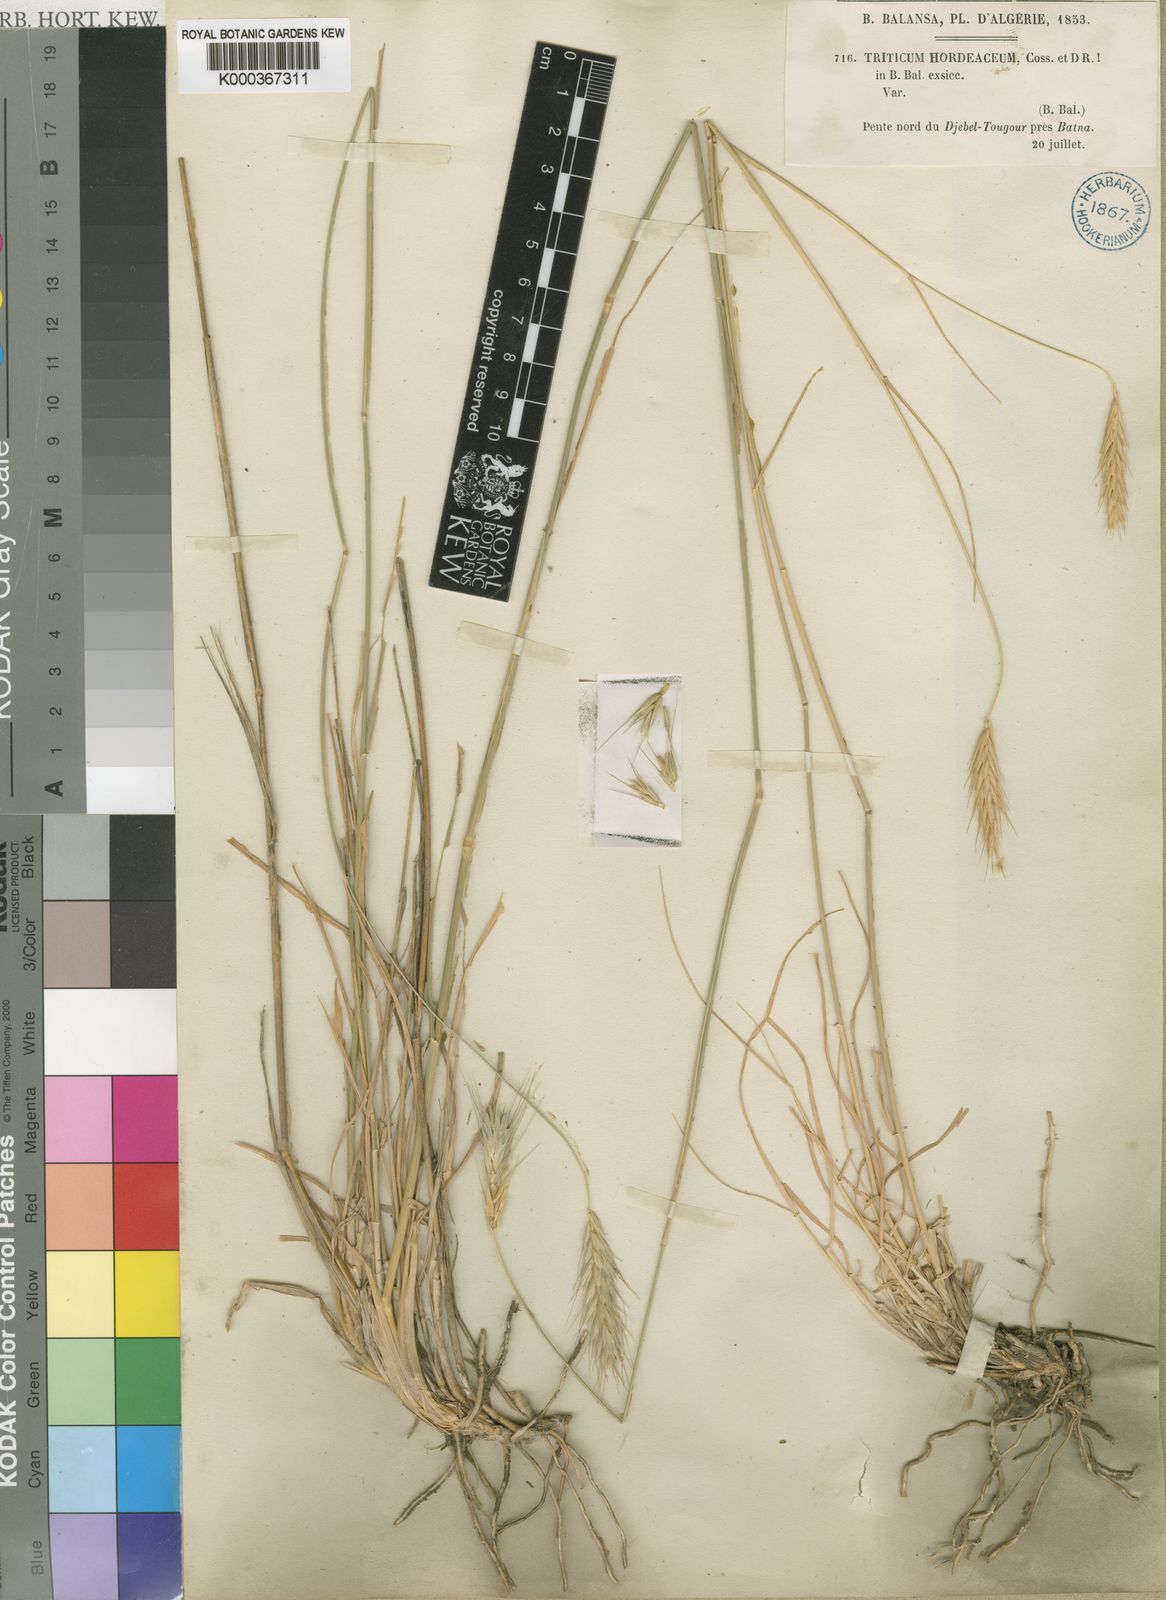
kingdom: Plantae
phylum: Tracheophyta
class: Liliopsida
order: Poales
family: Poaceae
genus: Dasypyrum
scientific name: Dasypyrum hordeaceum
